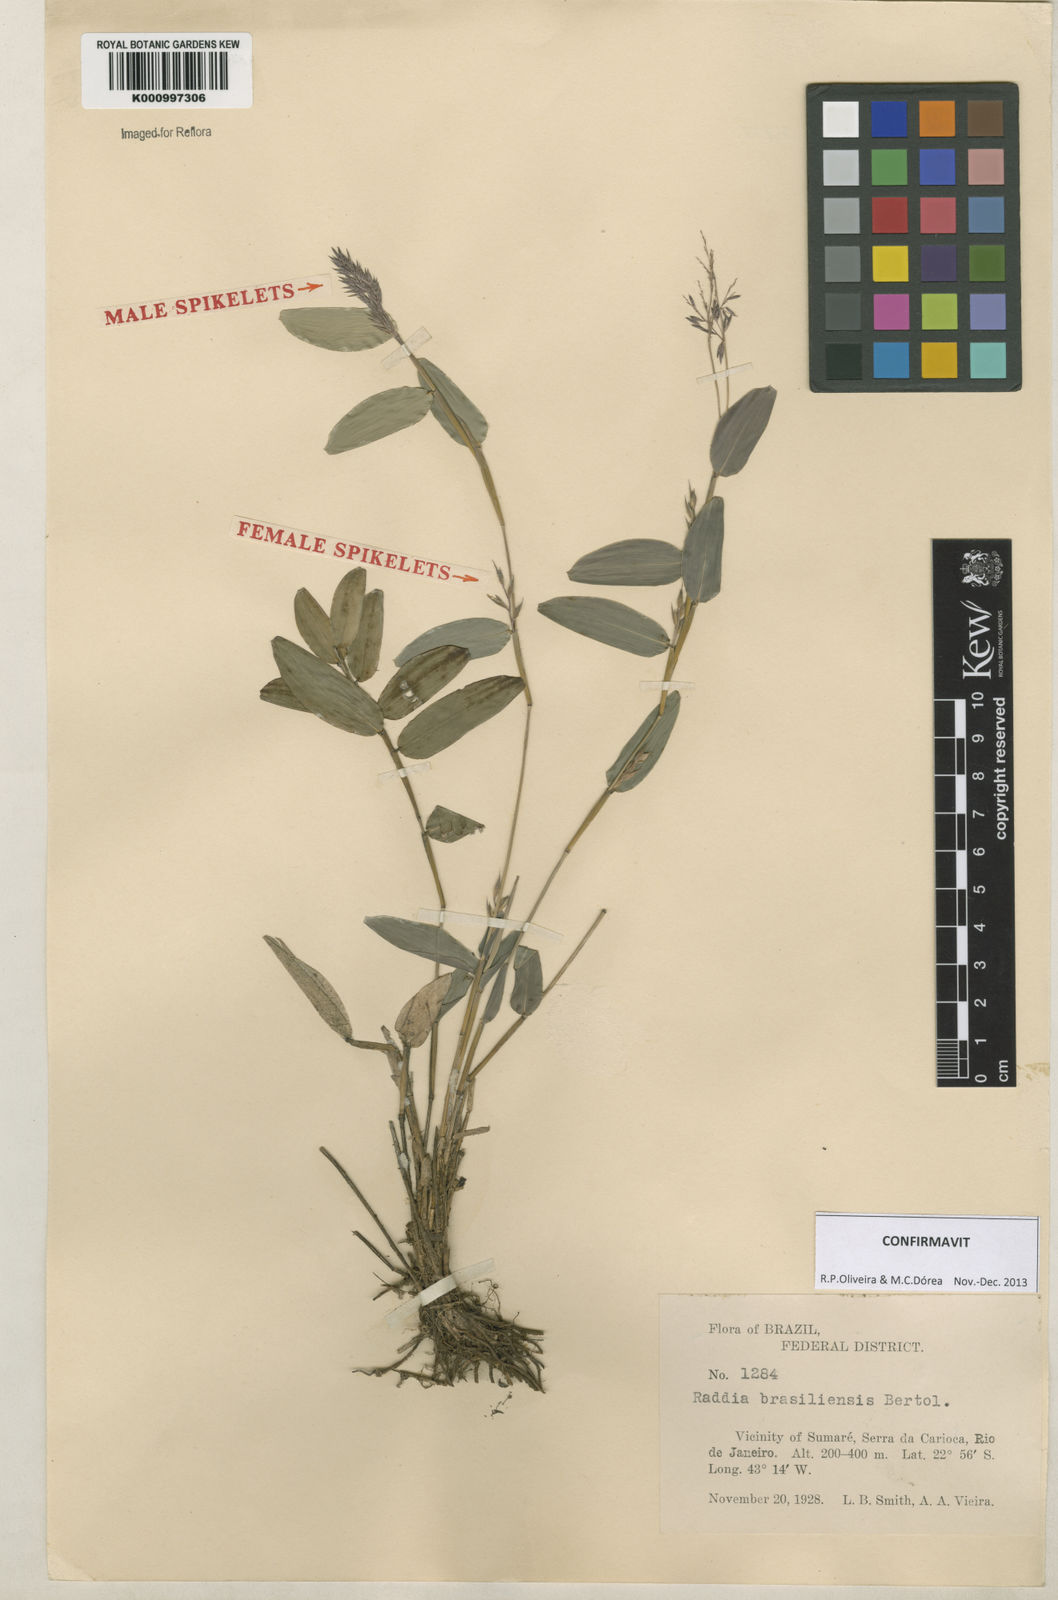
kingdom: Plantae
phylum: Tracheophyta
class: Liliopsida
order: Poales
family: Poaceae
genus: Raddia
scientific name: Raddia brasiliensis
